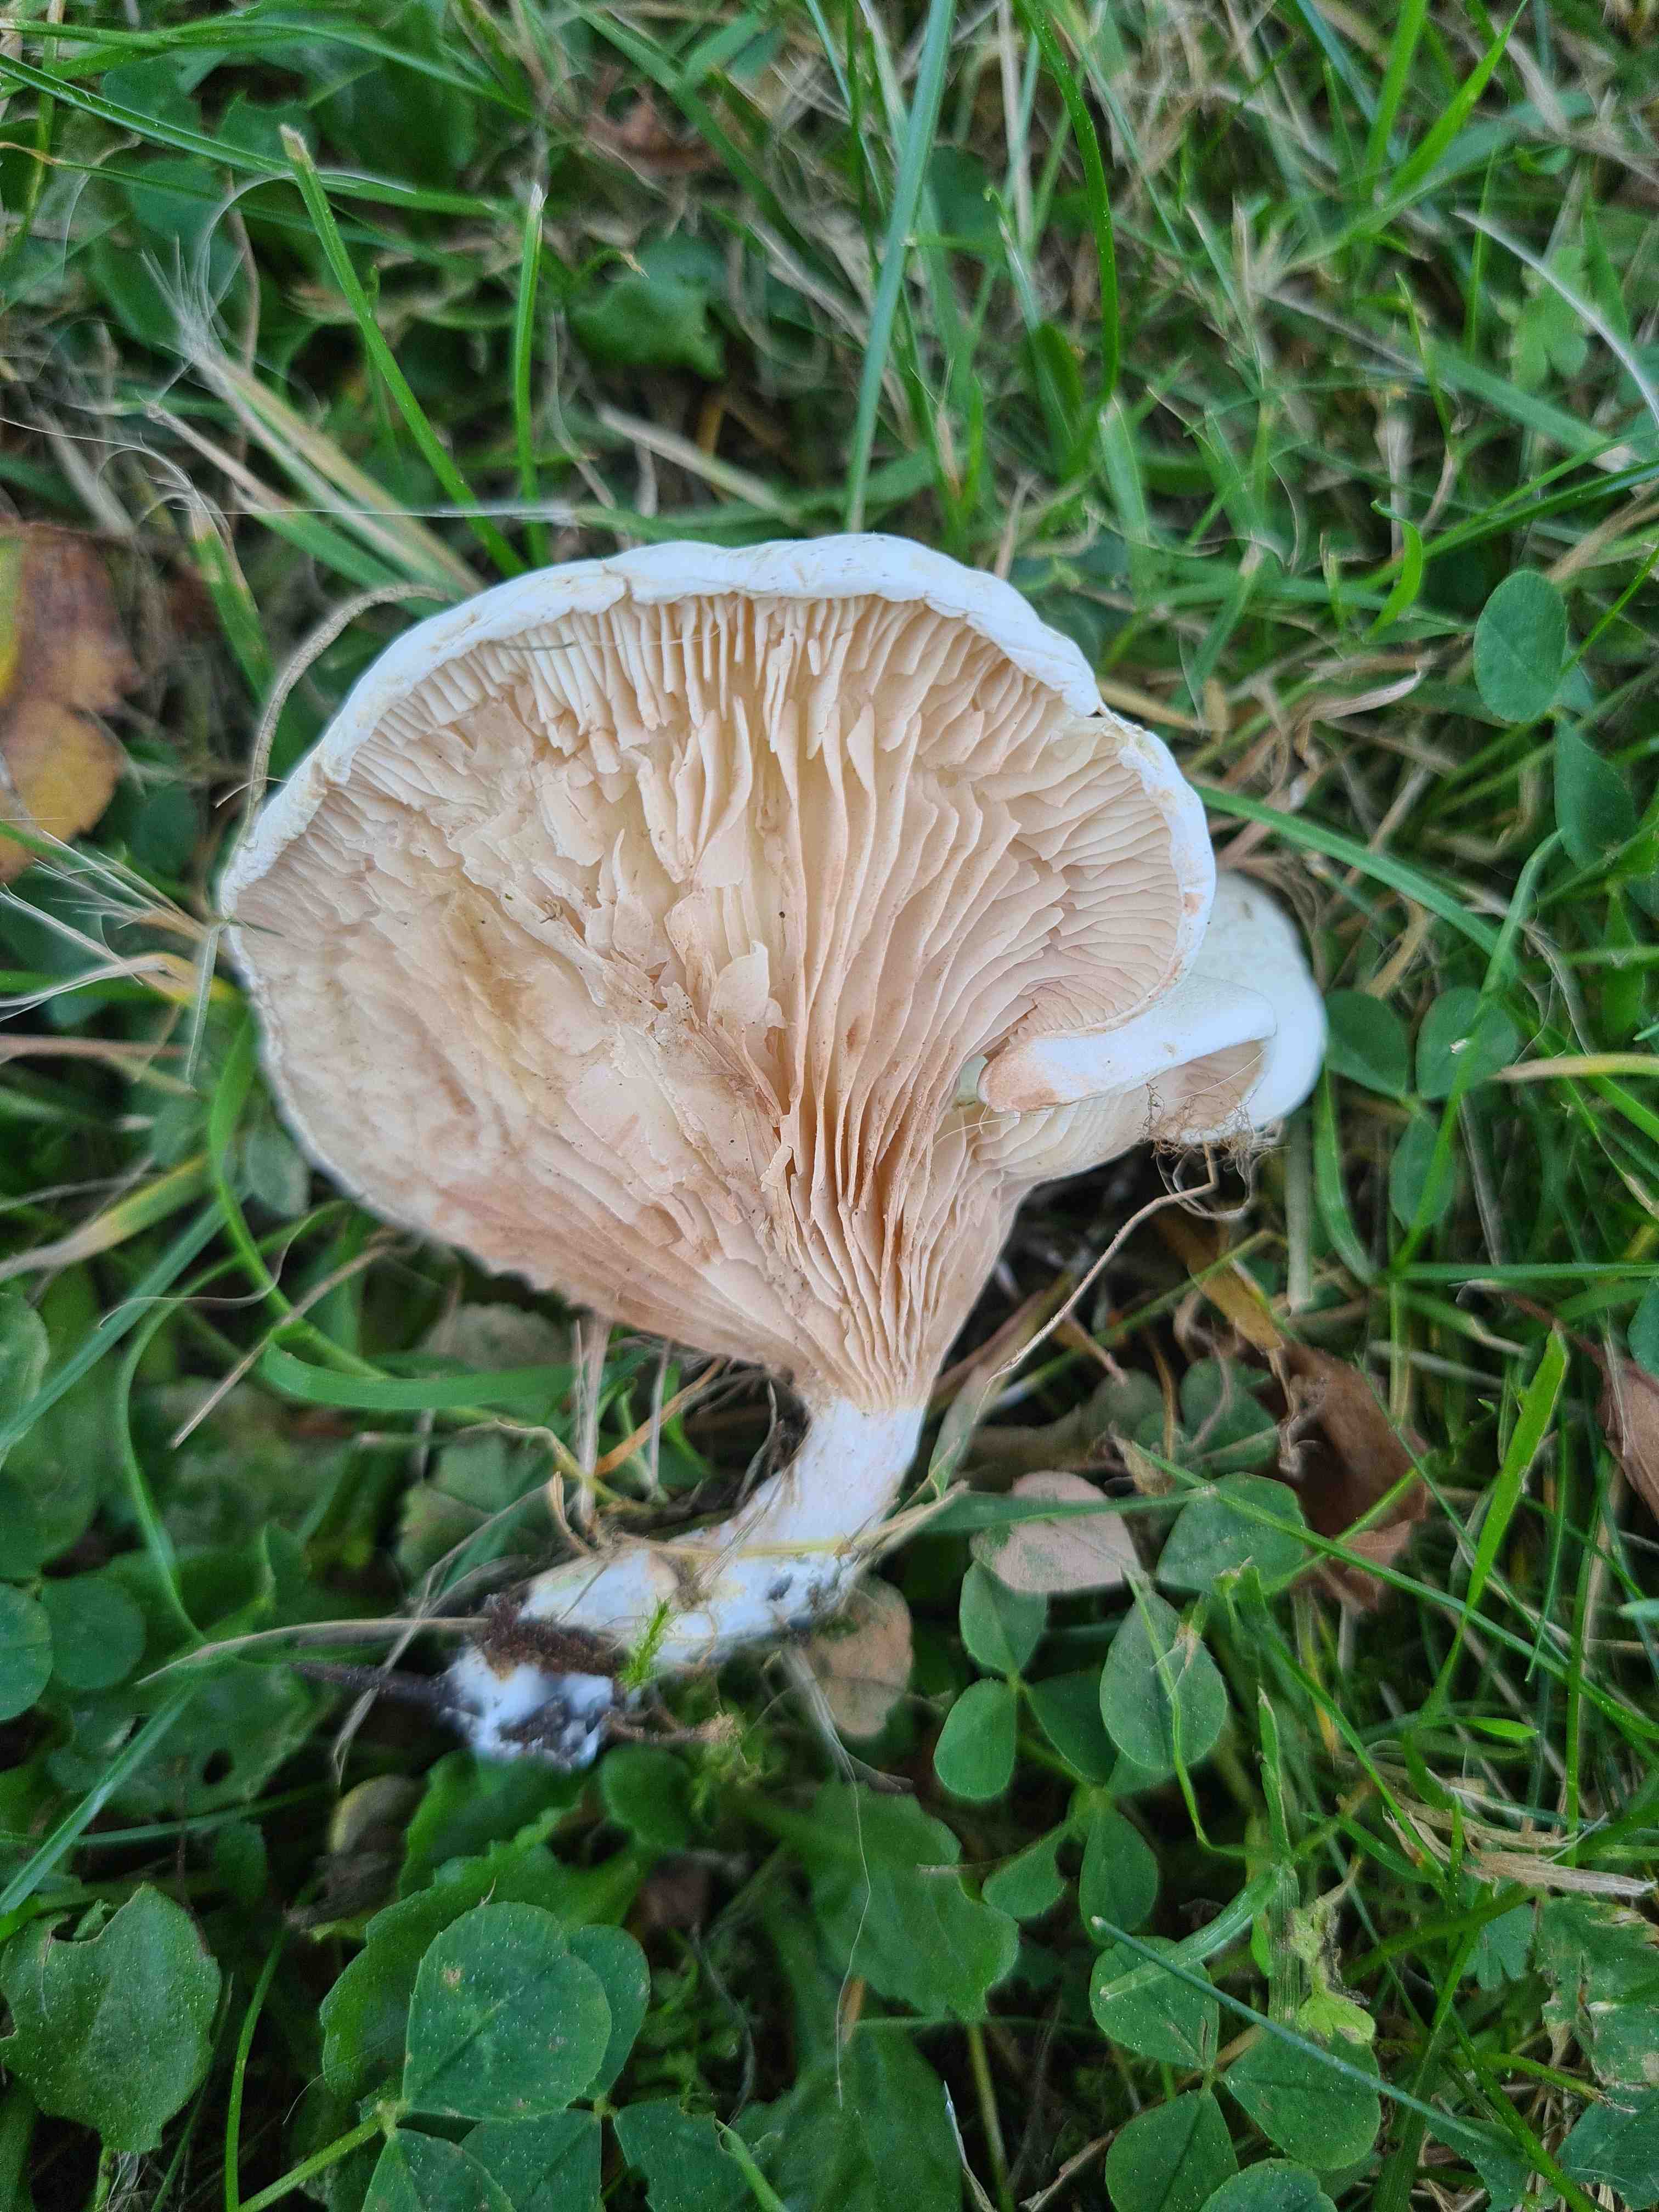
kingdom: Fungi
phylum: Basidiomycota
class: Agaricomycetes
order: Agaricales
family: Entolomataceae
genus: Clitopilus
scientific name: Clitopilus prunulus
